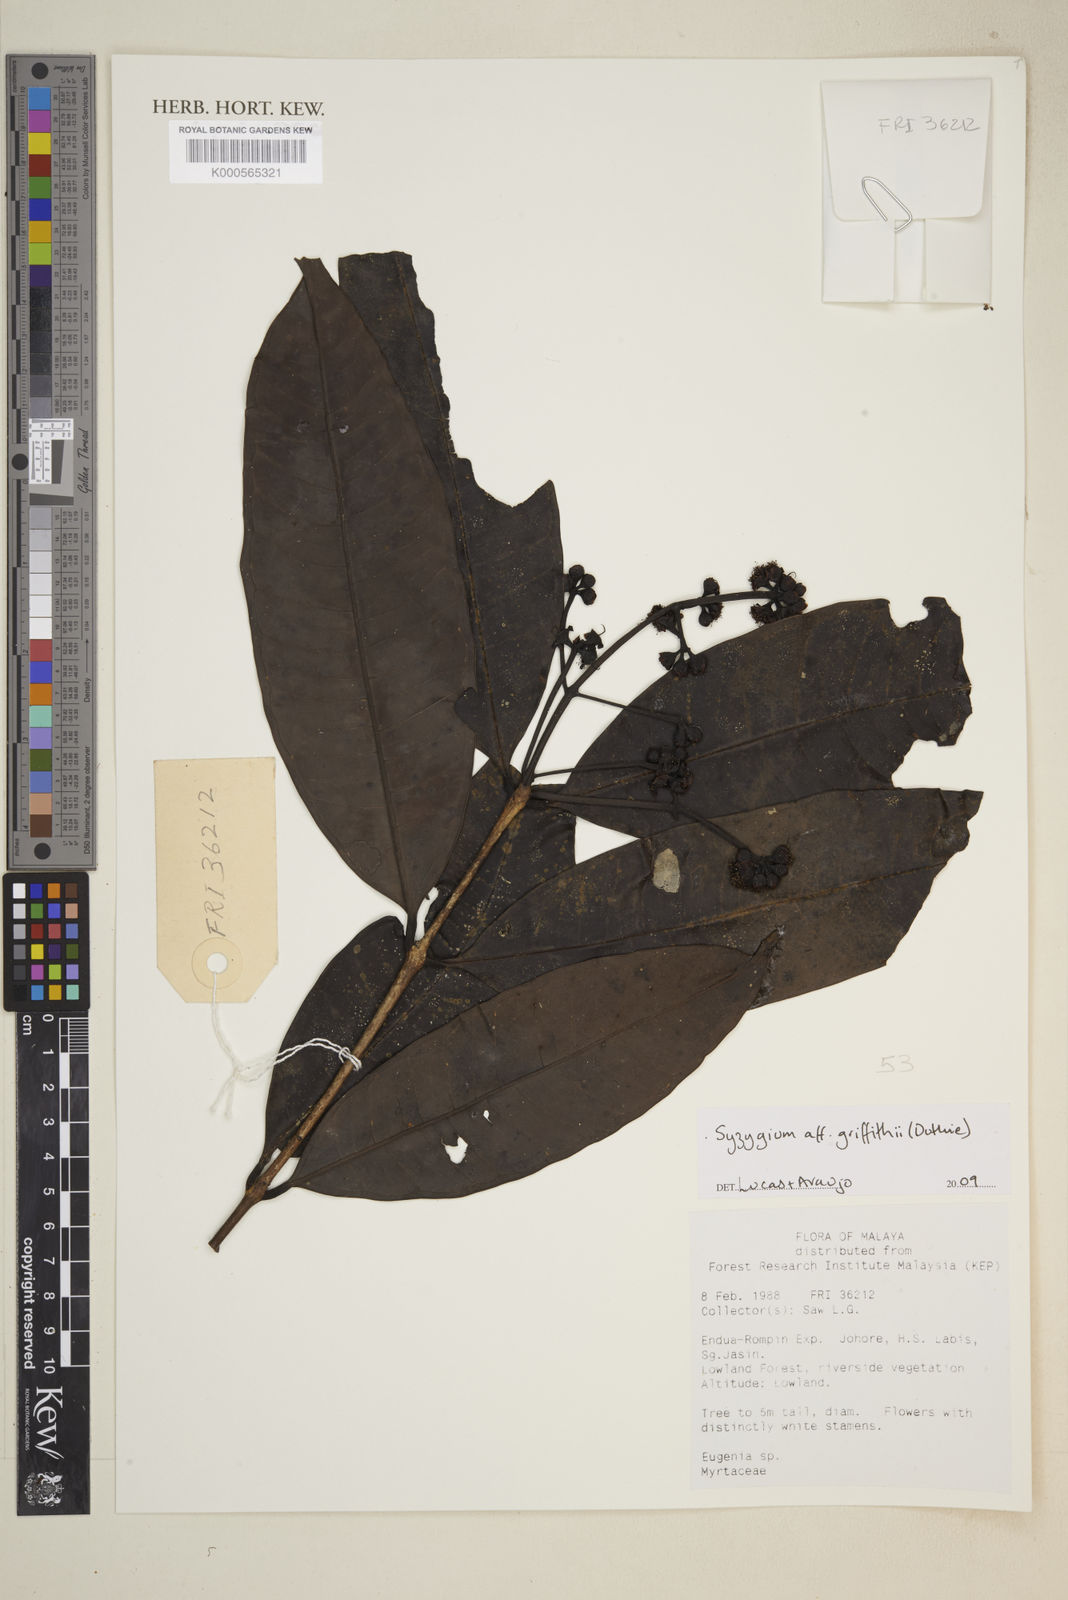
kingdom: Plantae
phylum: Tracheophyta
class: Magnoliopsida
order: Myrtales
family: Myrtaceae
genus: Syzygium
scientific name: Syzygium grande
